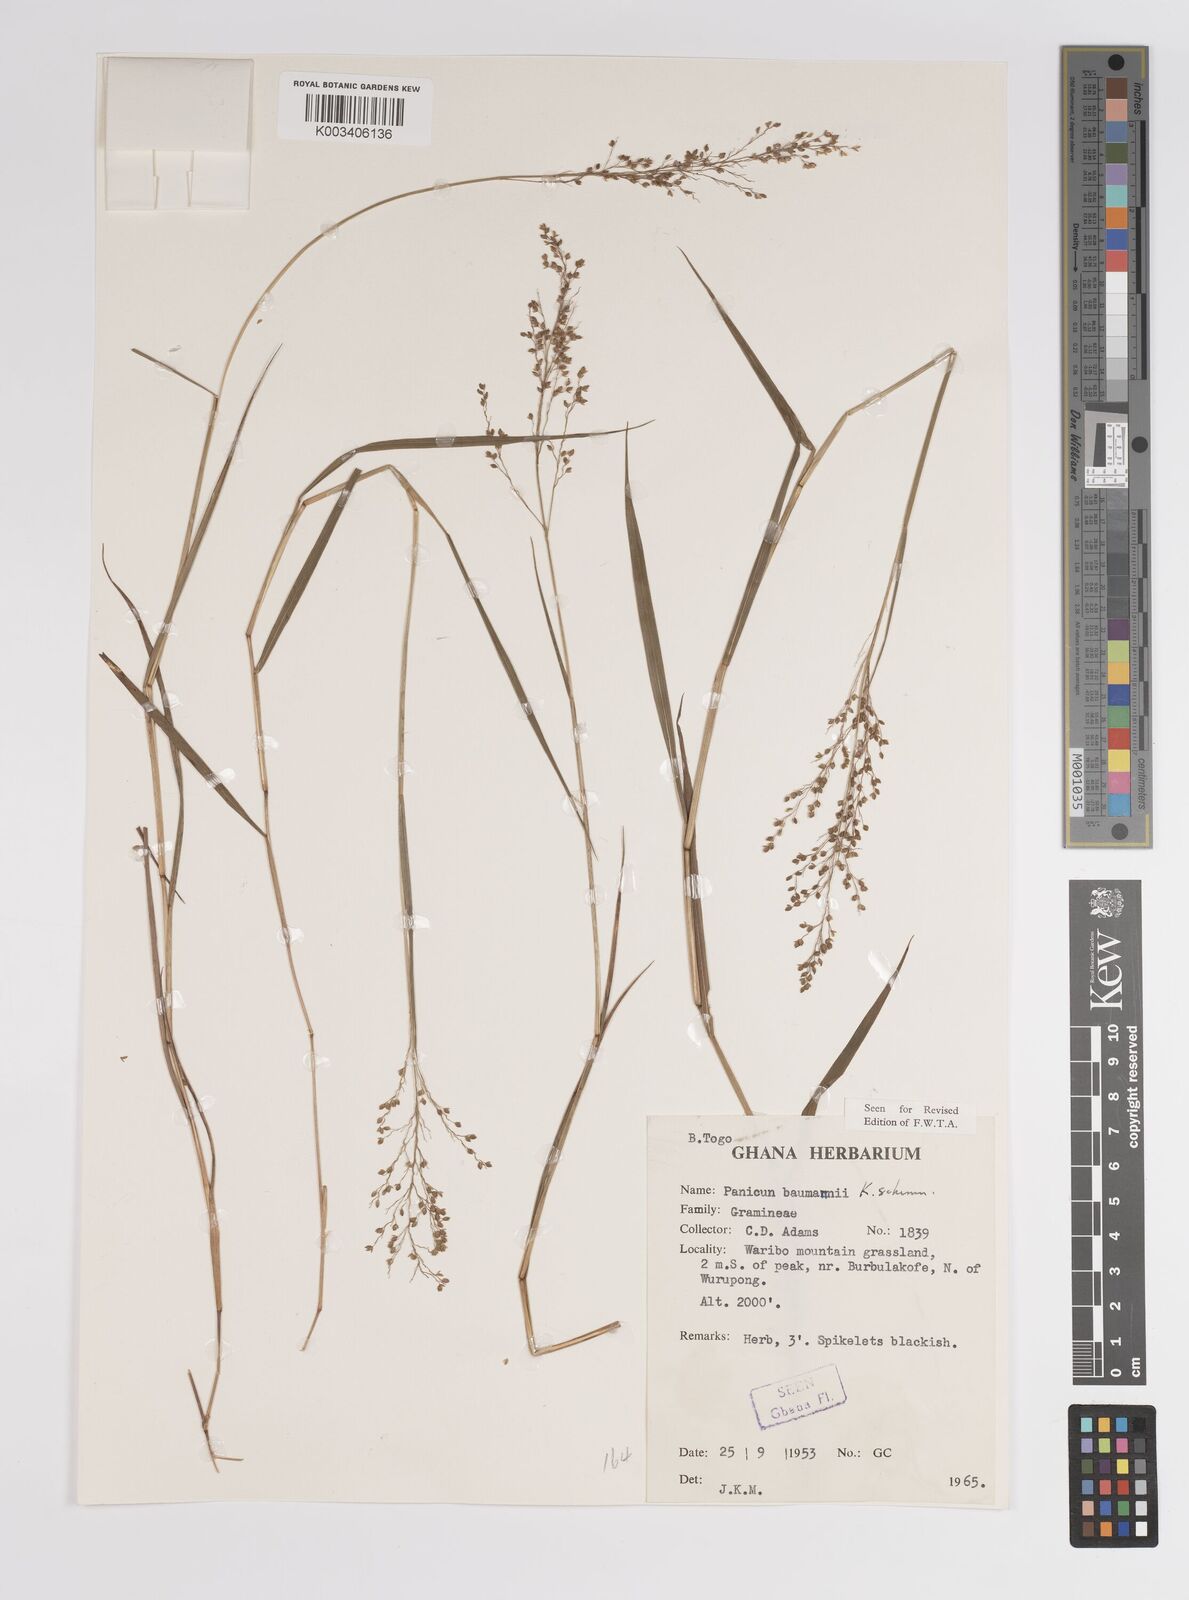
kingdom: Plantae
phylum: Tracheophyta
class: Liliopsida
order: Poales
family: Poaceae
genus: Trichanthecium
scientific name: Trichanthecium nervatum
